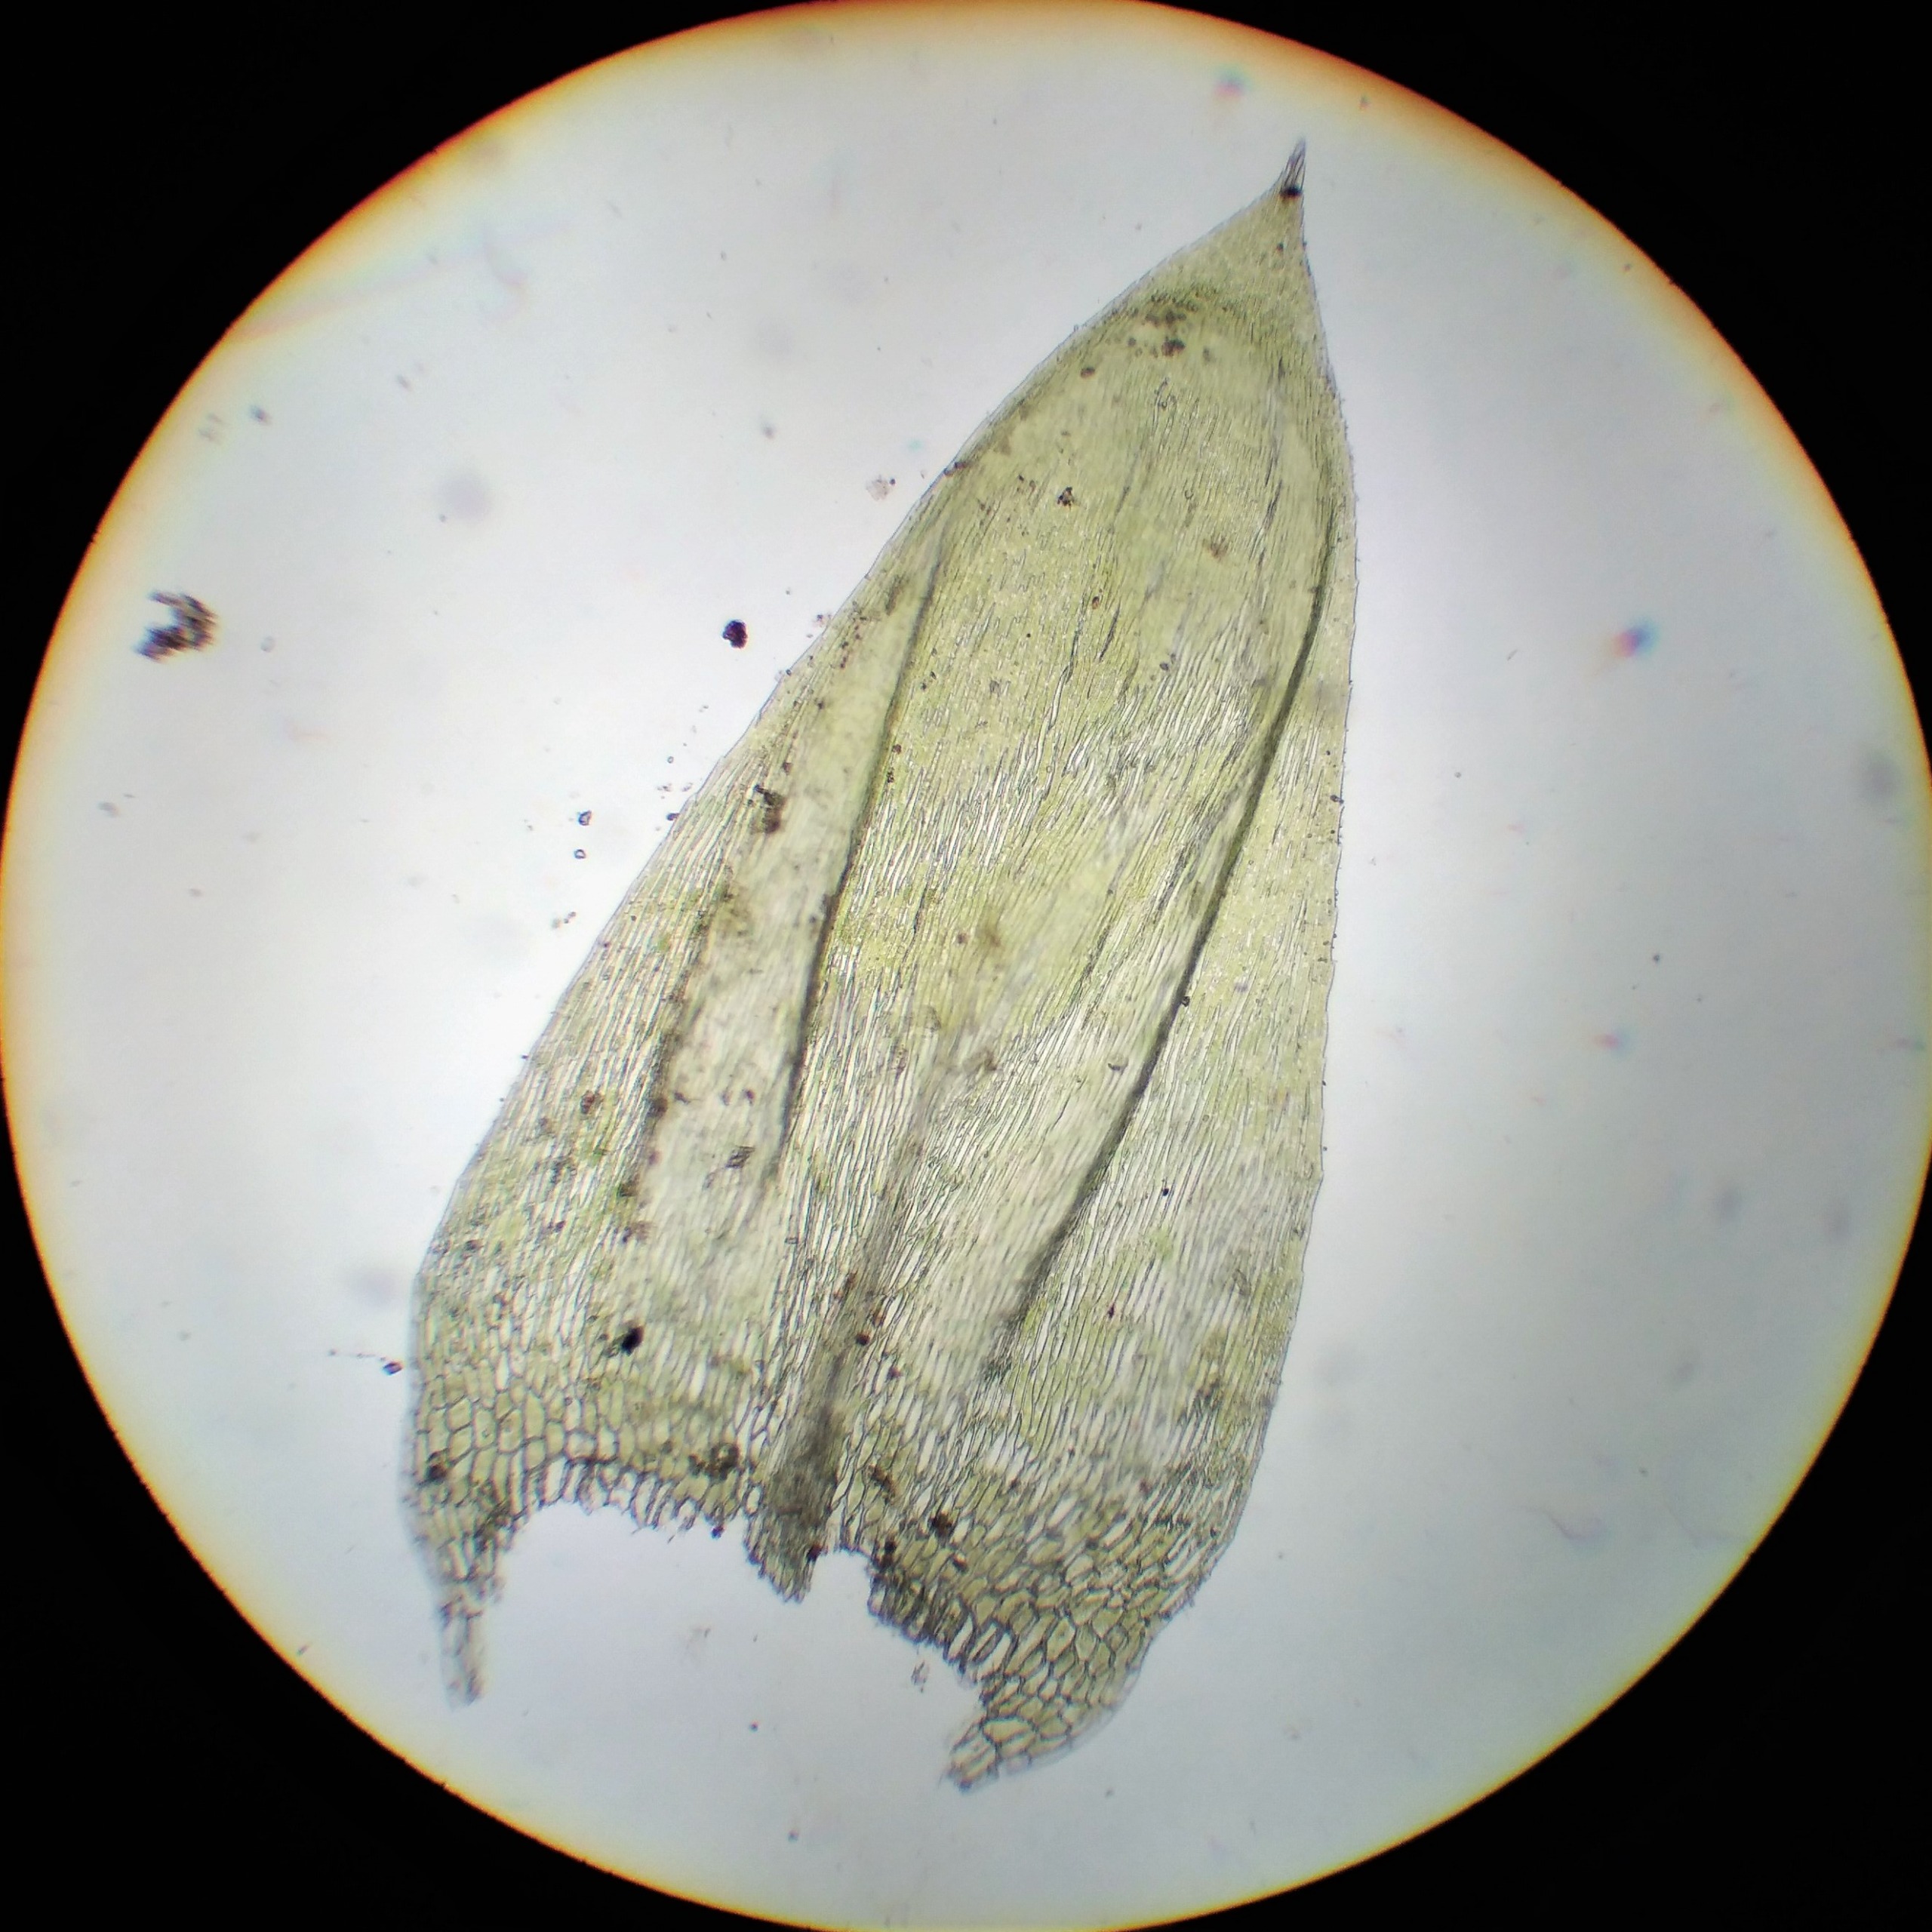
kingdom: Plantae
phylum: Bryophyta
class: Bryopsida
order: Hypnales
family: Brachytheciaceae
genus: Brachythecium
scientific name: Brachythecium rivulare
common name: Væld-kortkapsel
